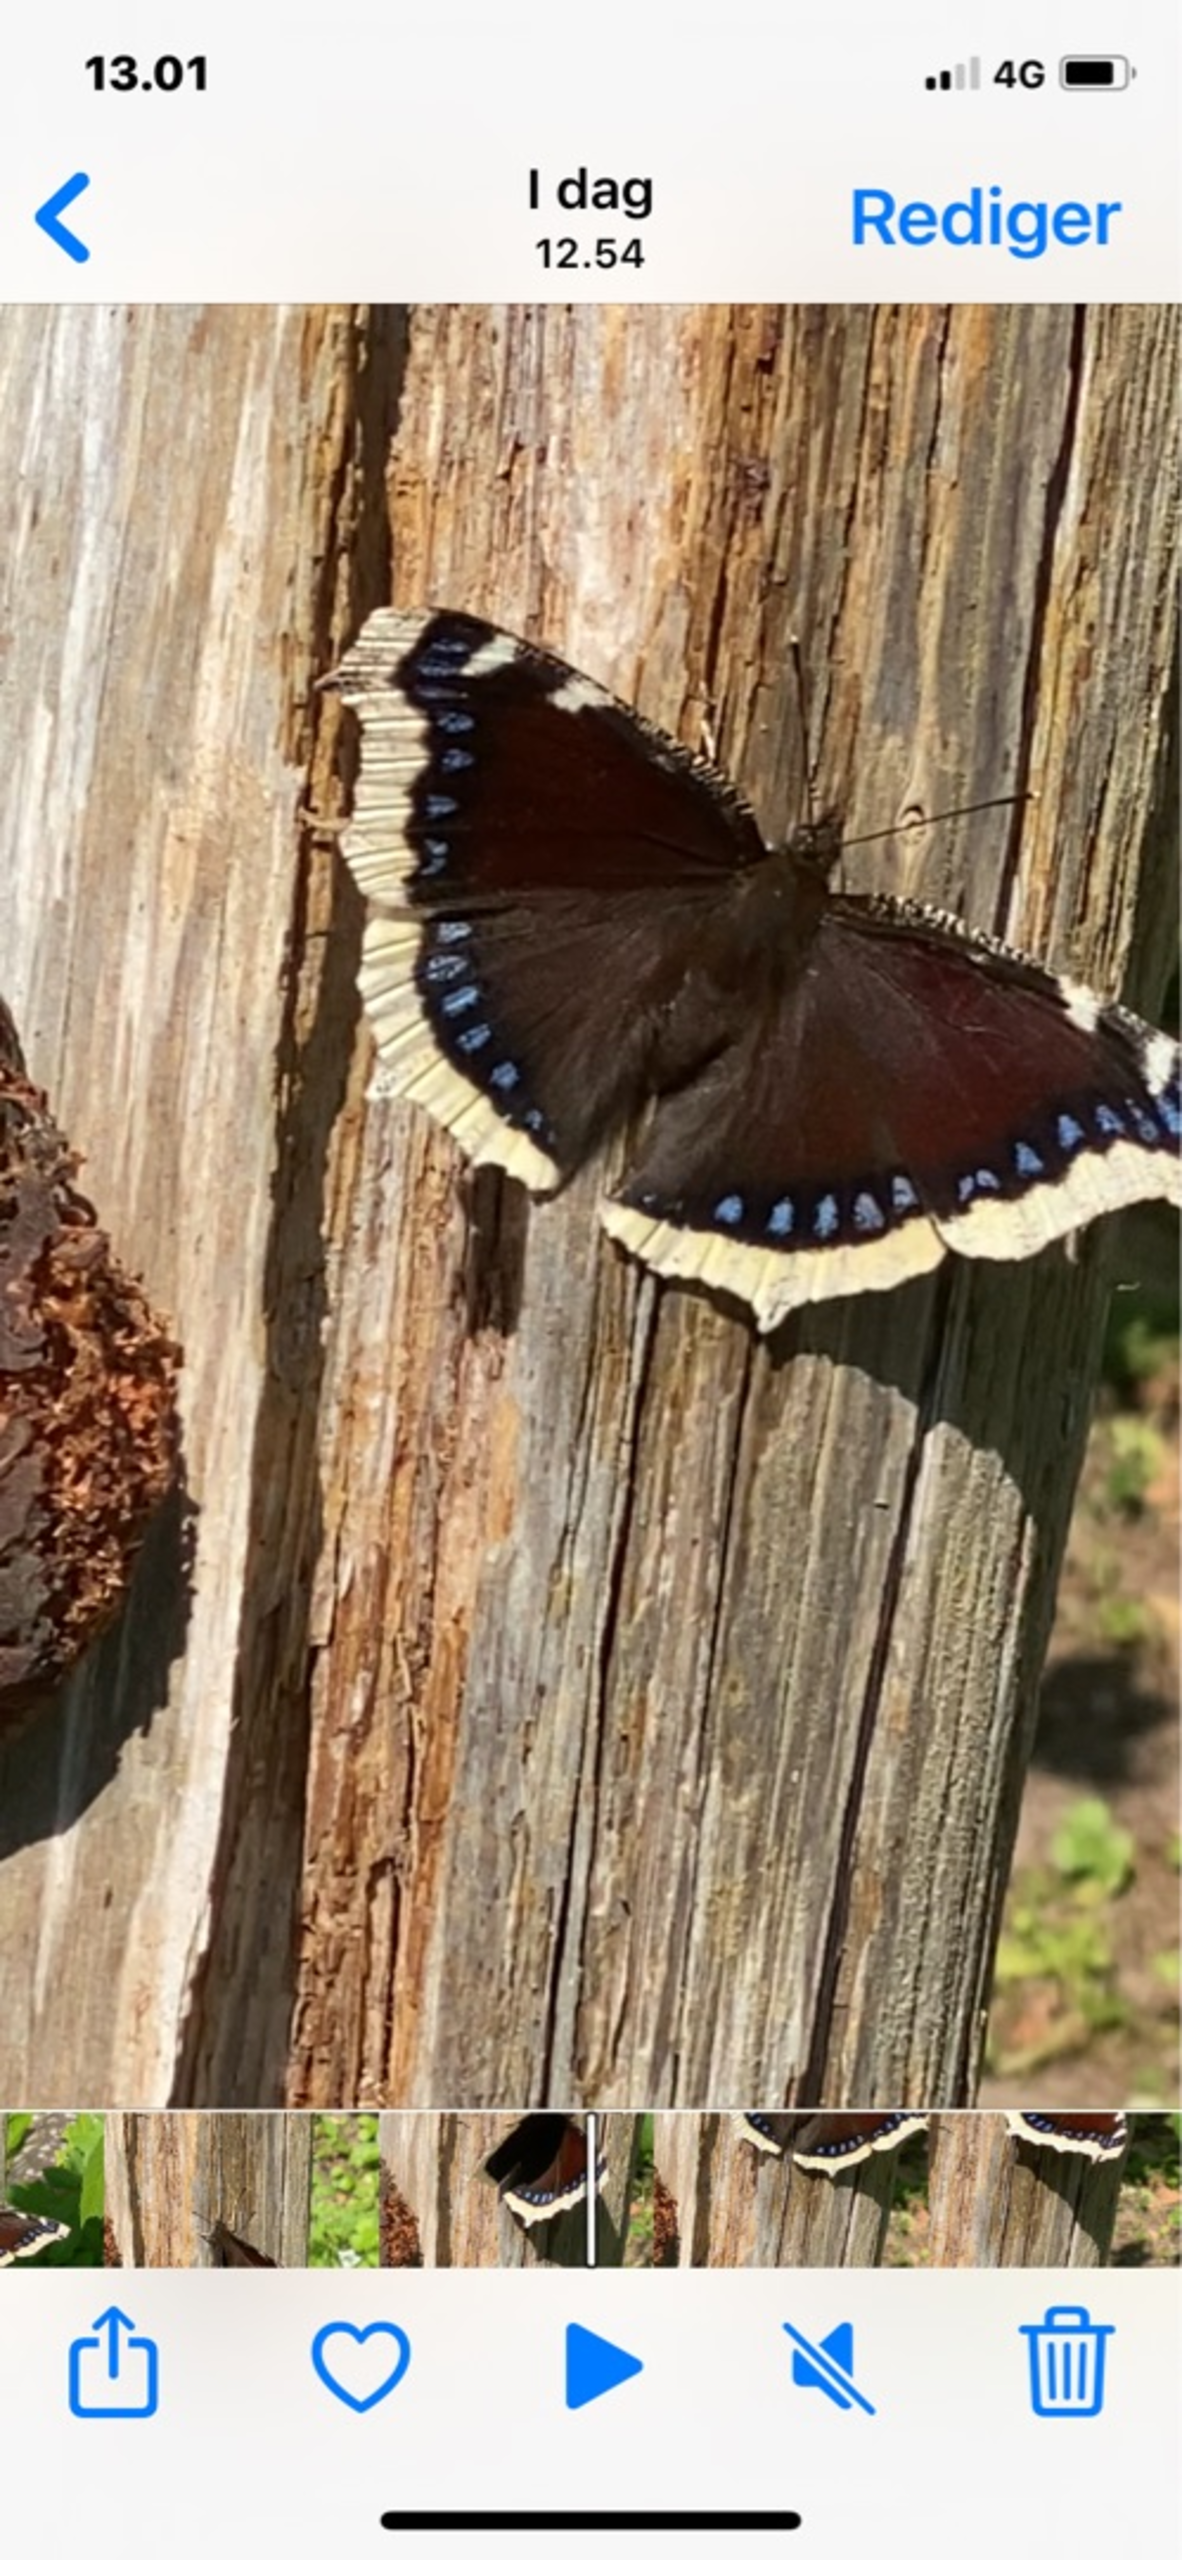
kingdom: Animalia
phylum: Arthropoda
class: Insecta
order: Lepidoptera
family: Nymphalidae
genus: Nymphalis
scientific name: Nymphalis antiopa
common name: Sørgekåbe
